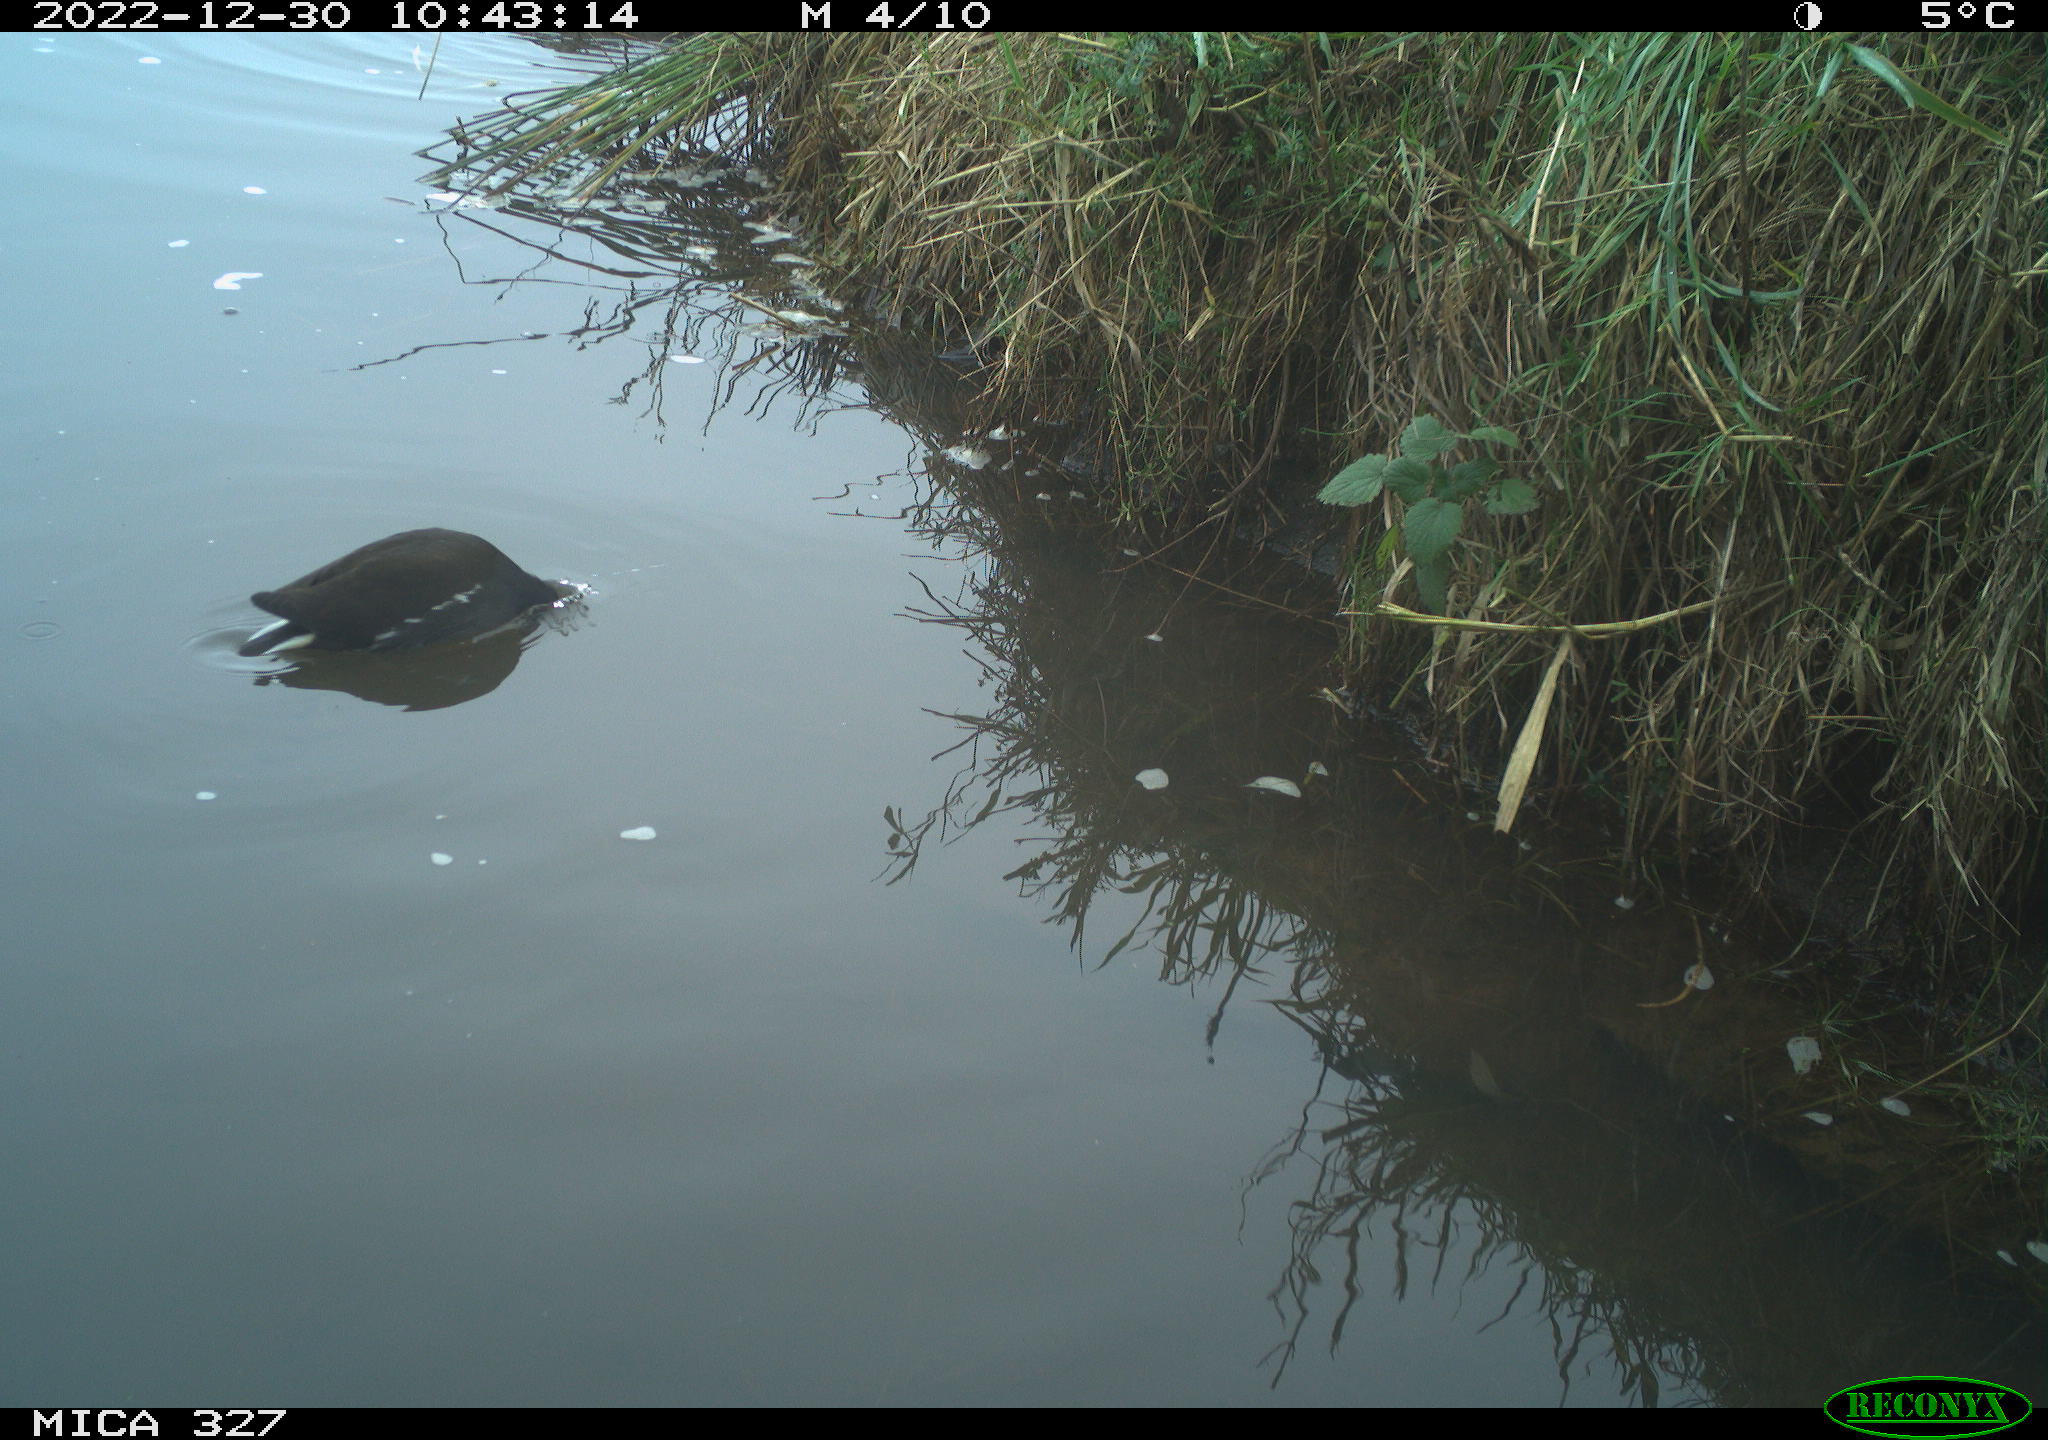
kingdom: Animalia
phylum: Chordata
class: Aves
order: Gruiformes
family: Rallidae
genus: Gallinula
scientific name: Gallinula chloropus
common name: Common moorhen
